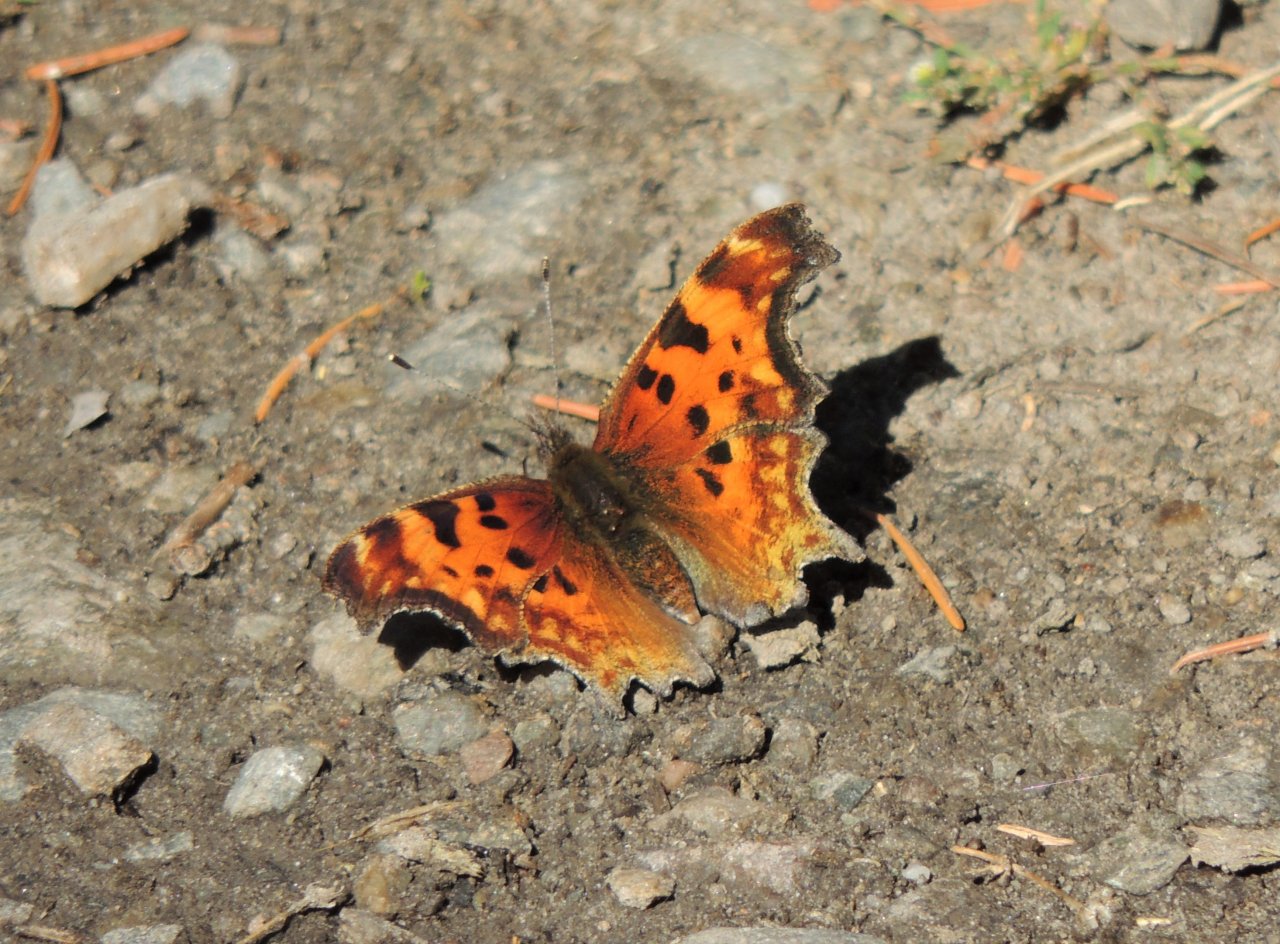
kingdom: Animalia
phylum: Arthropoda
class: Insecta
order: Lepidoptera
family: Nymphalidae
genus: Polygonia
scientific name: Polygonia gracilis
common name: Hoary Comma
